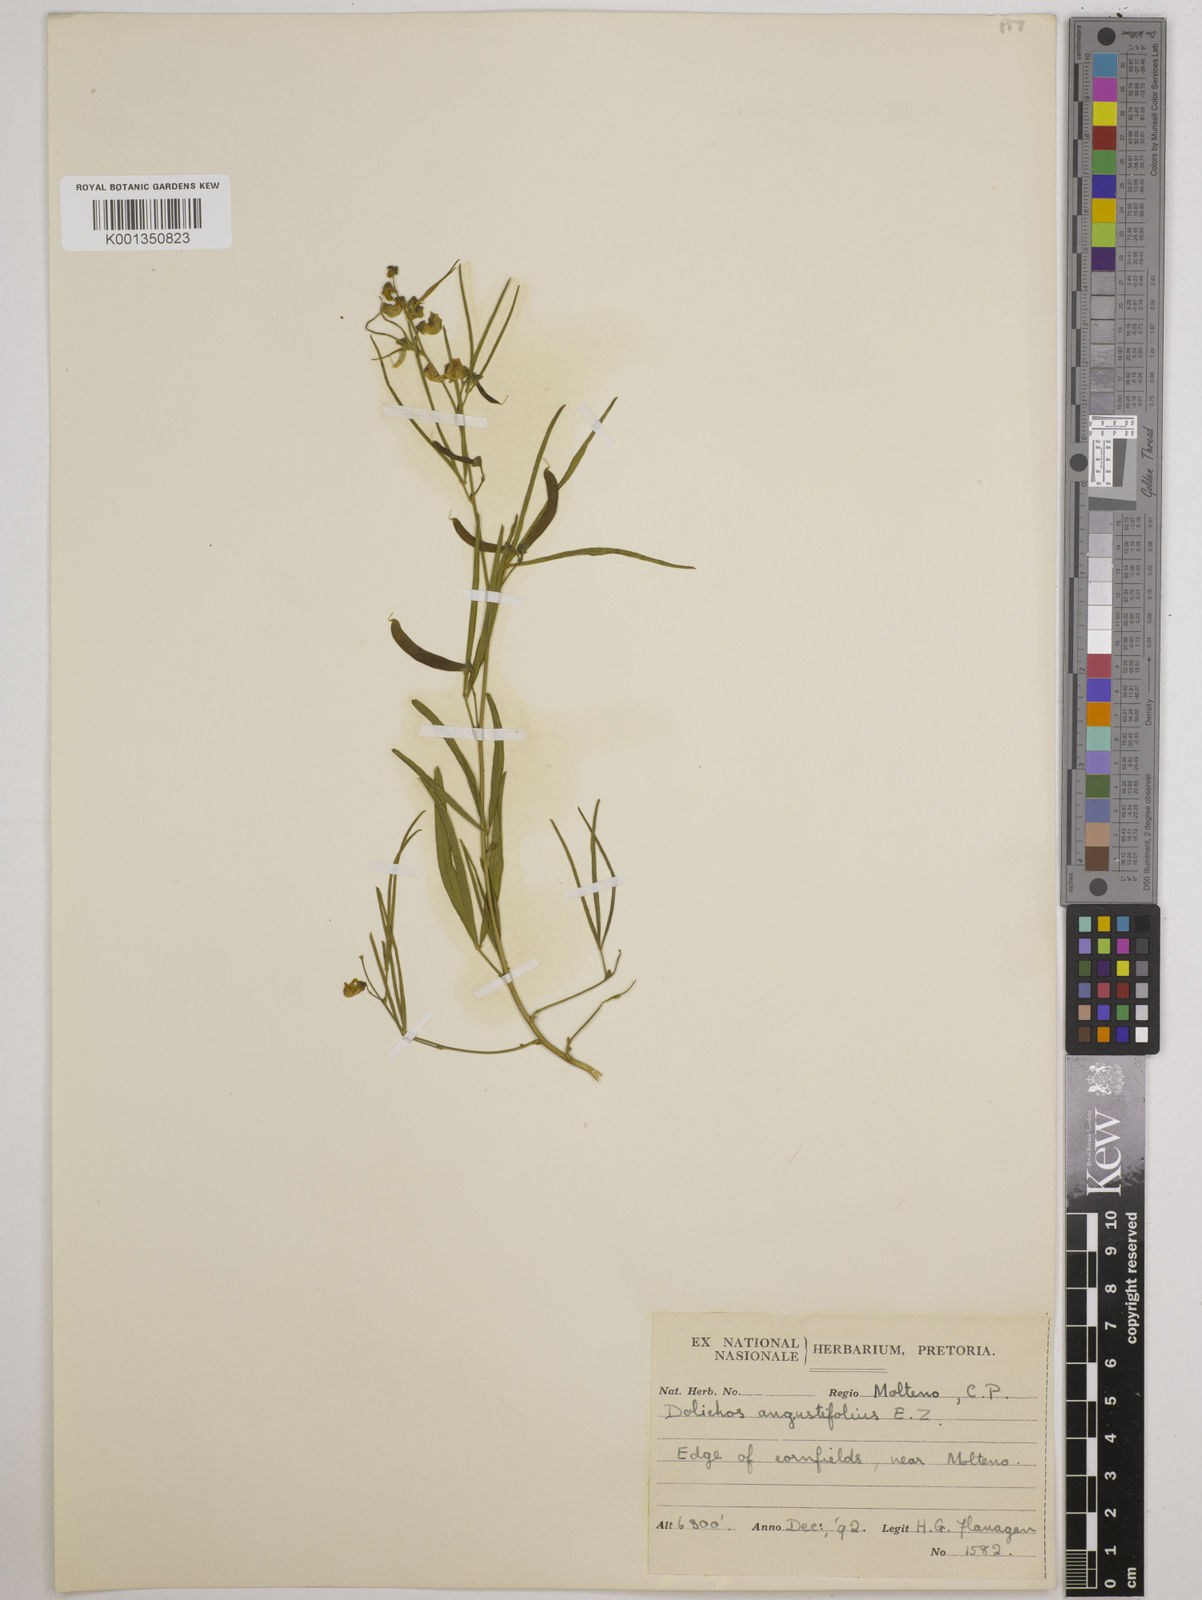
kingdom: Plantae
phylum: Tracheophyta
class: Magnoliopsida
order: Fabales
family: Fabaceae
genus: Dolichos
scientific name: Dolichos
